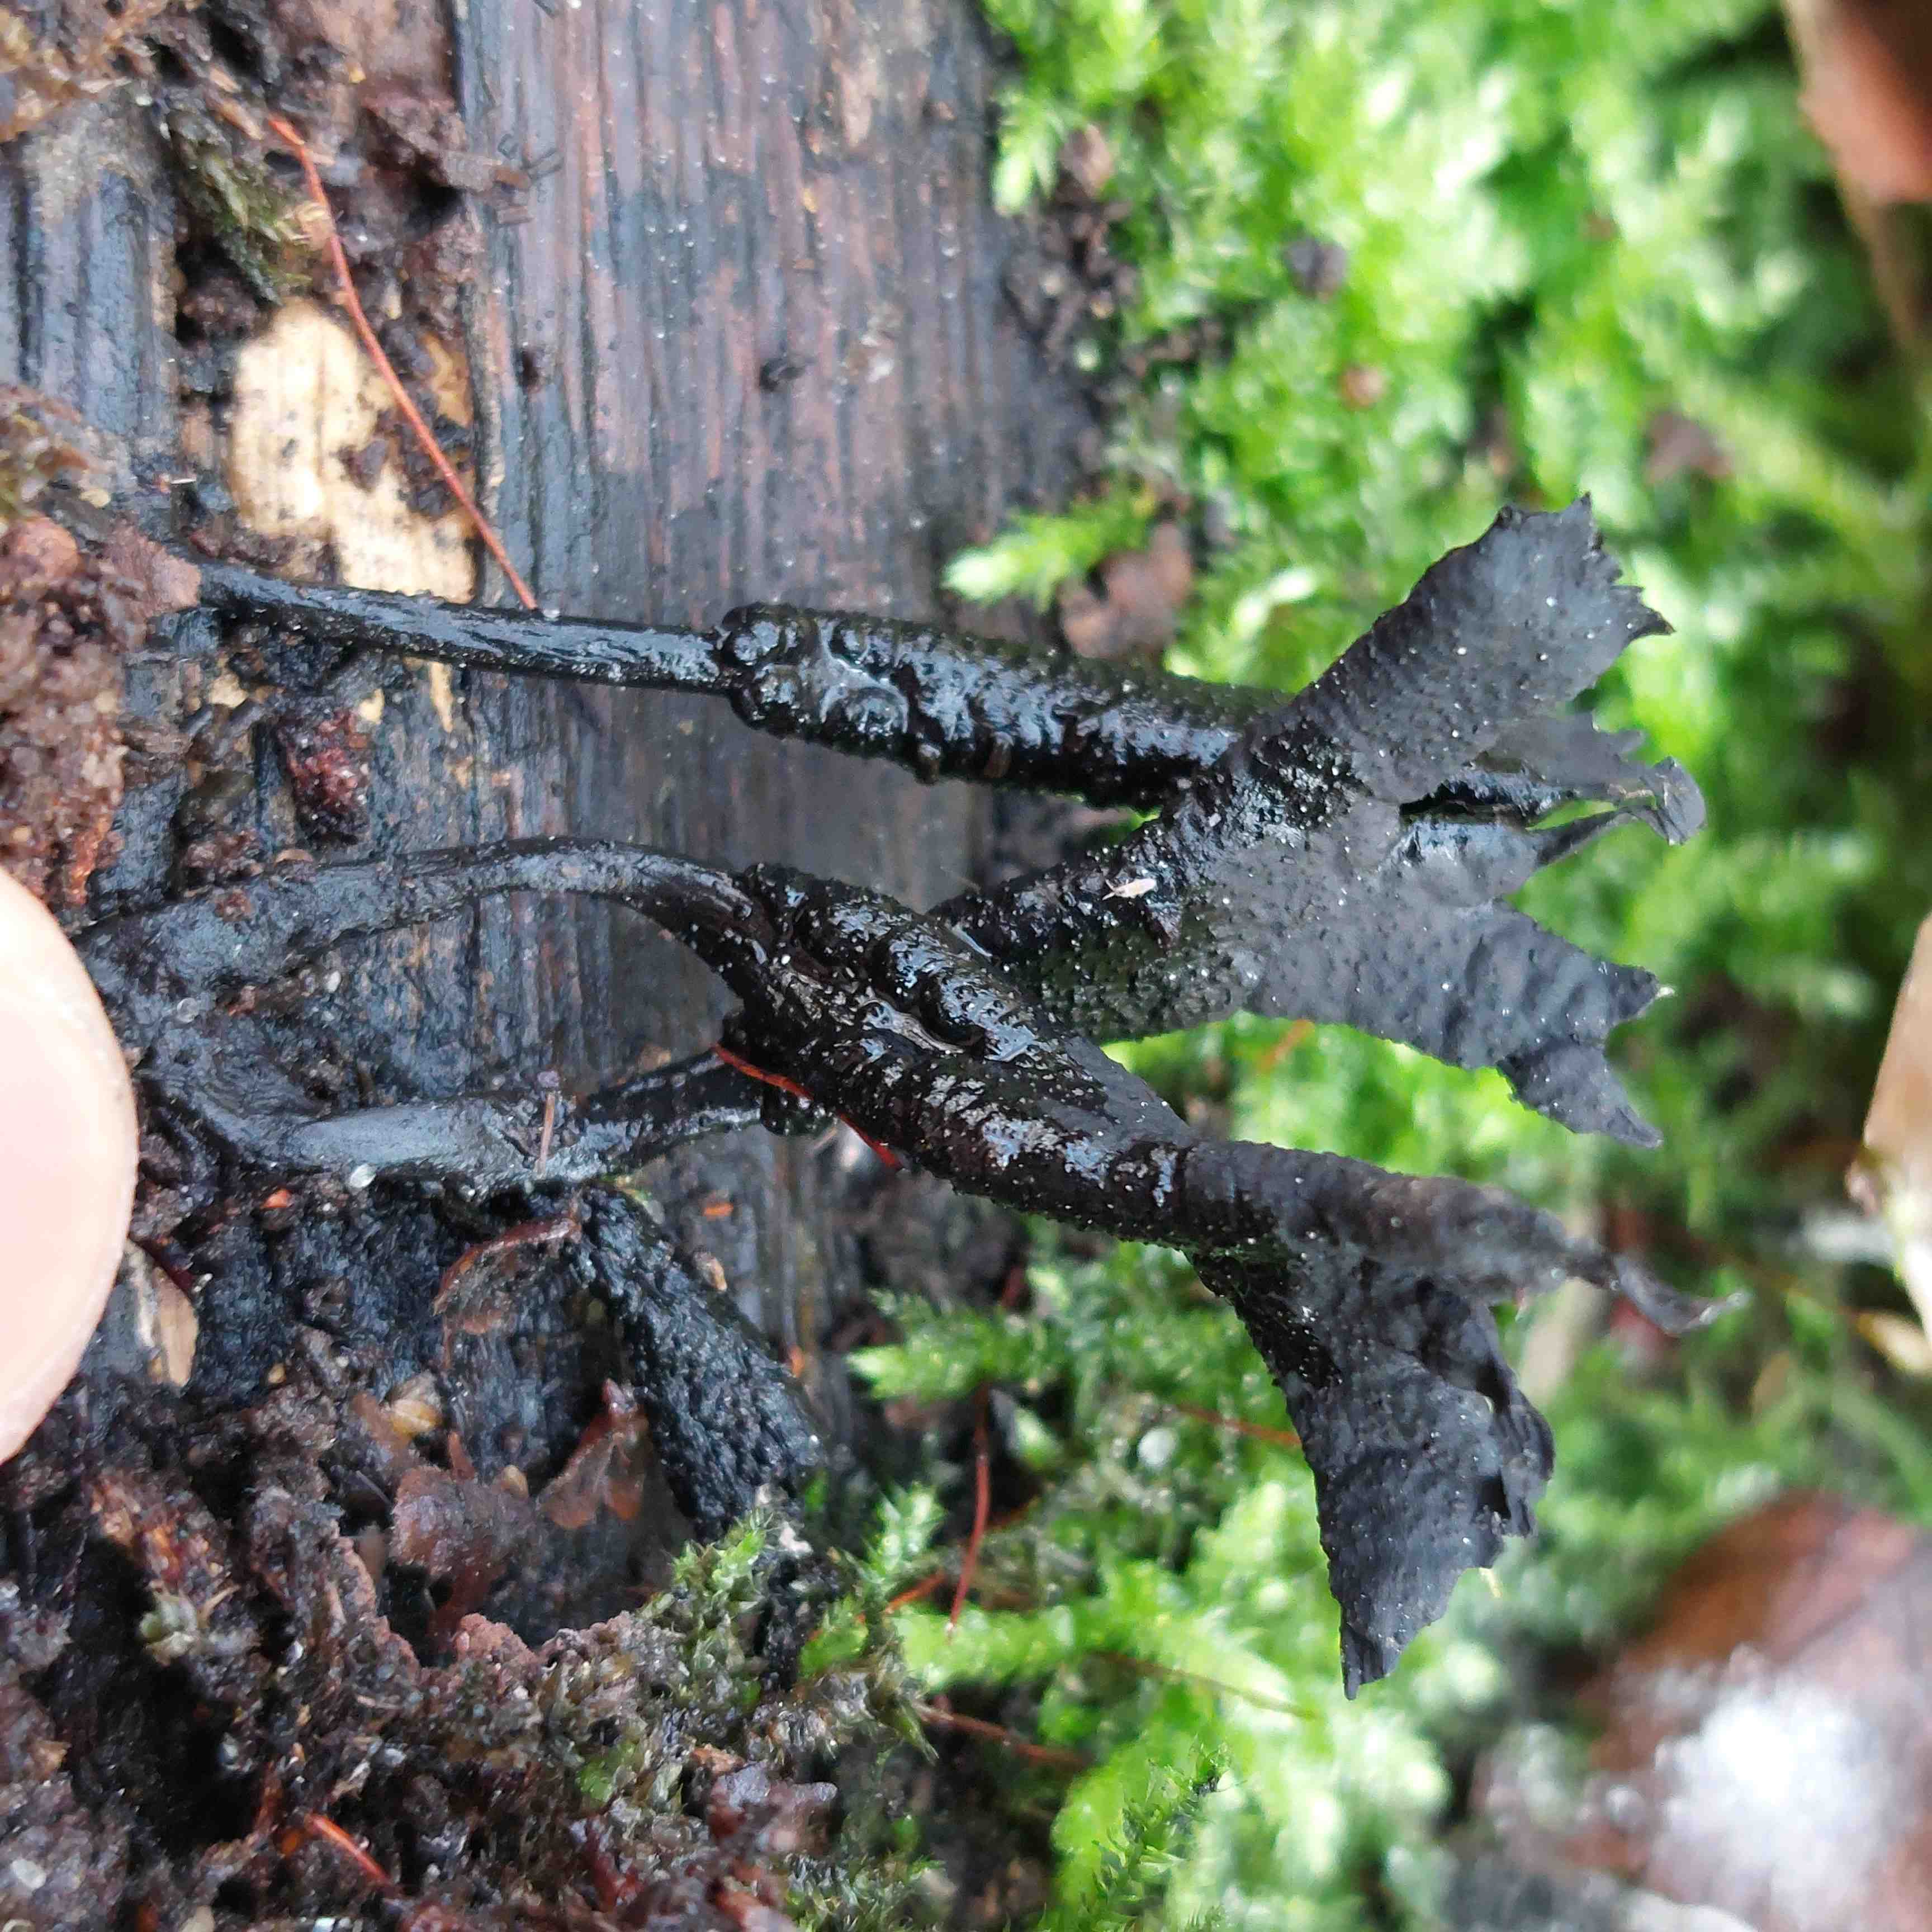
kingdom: Fungi
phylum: Ascomycota
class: Sordariomycetes
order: Xylariales
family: Xylariaceae
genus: Xylaria
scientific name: Xylaria hypoxylon
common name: grenet stødsvamp
